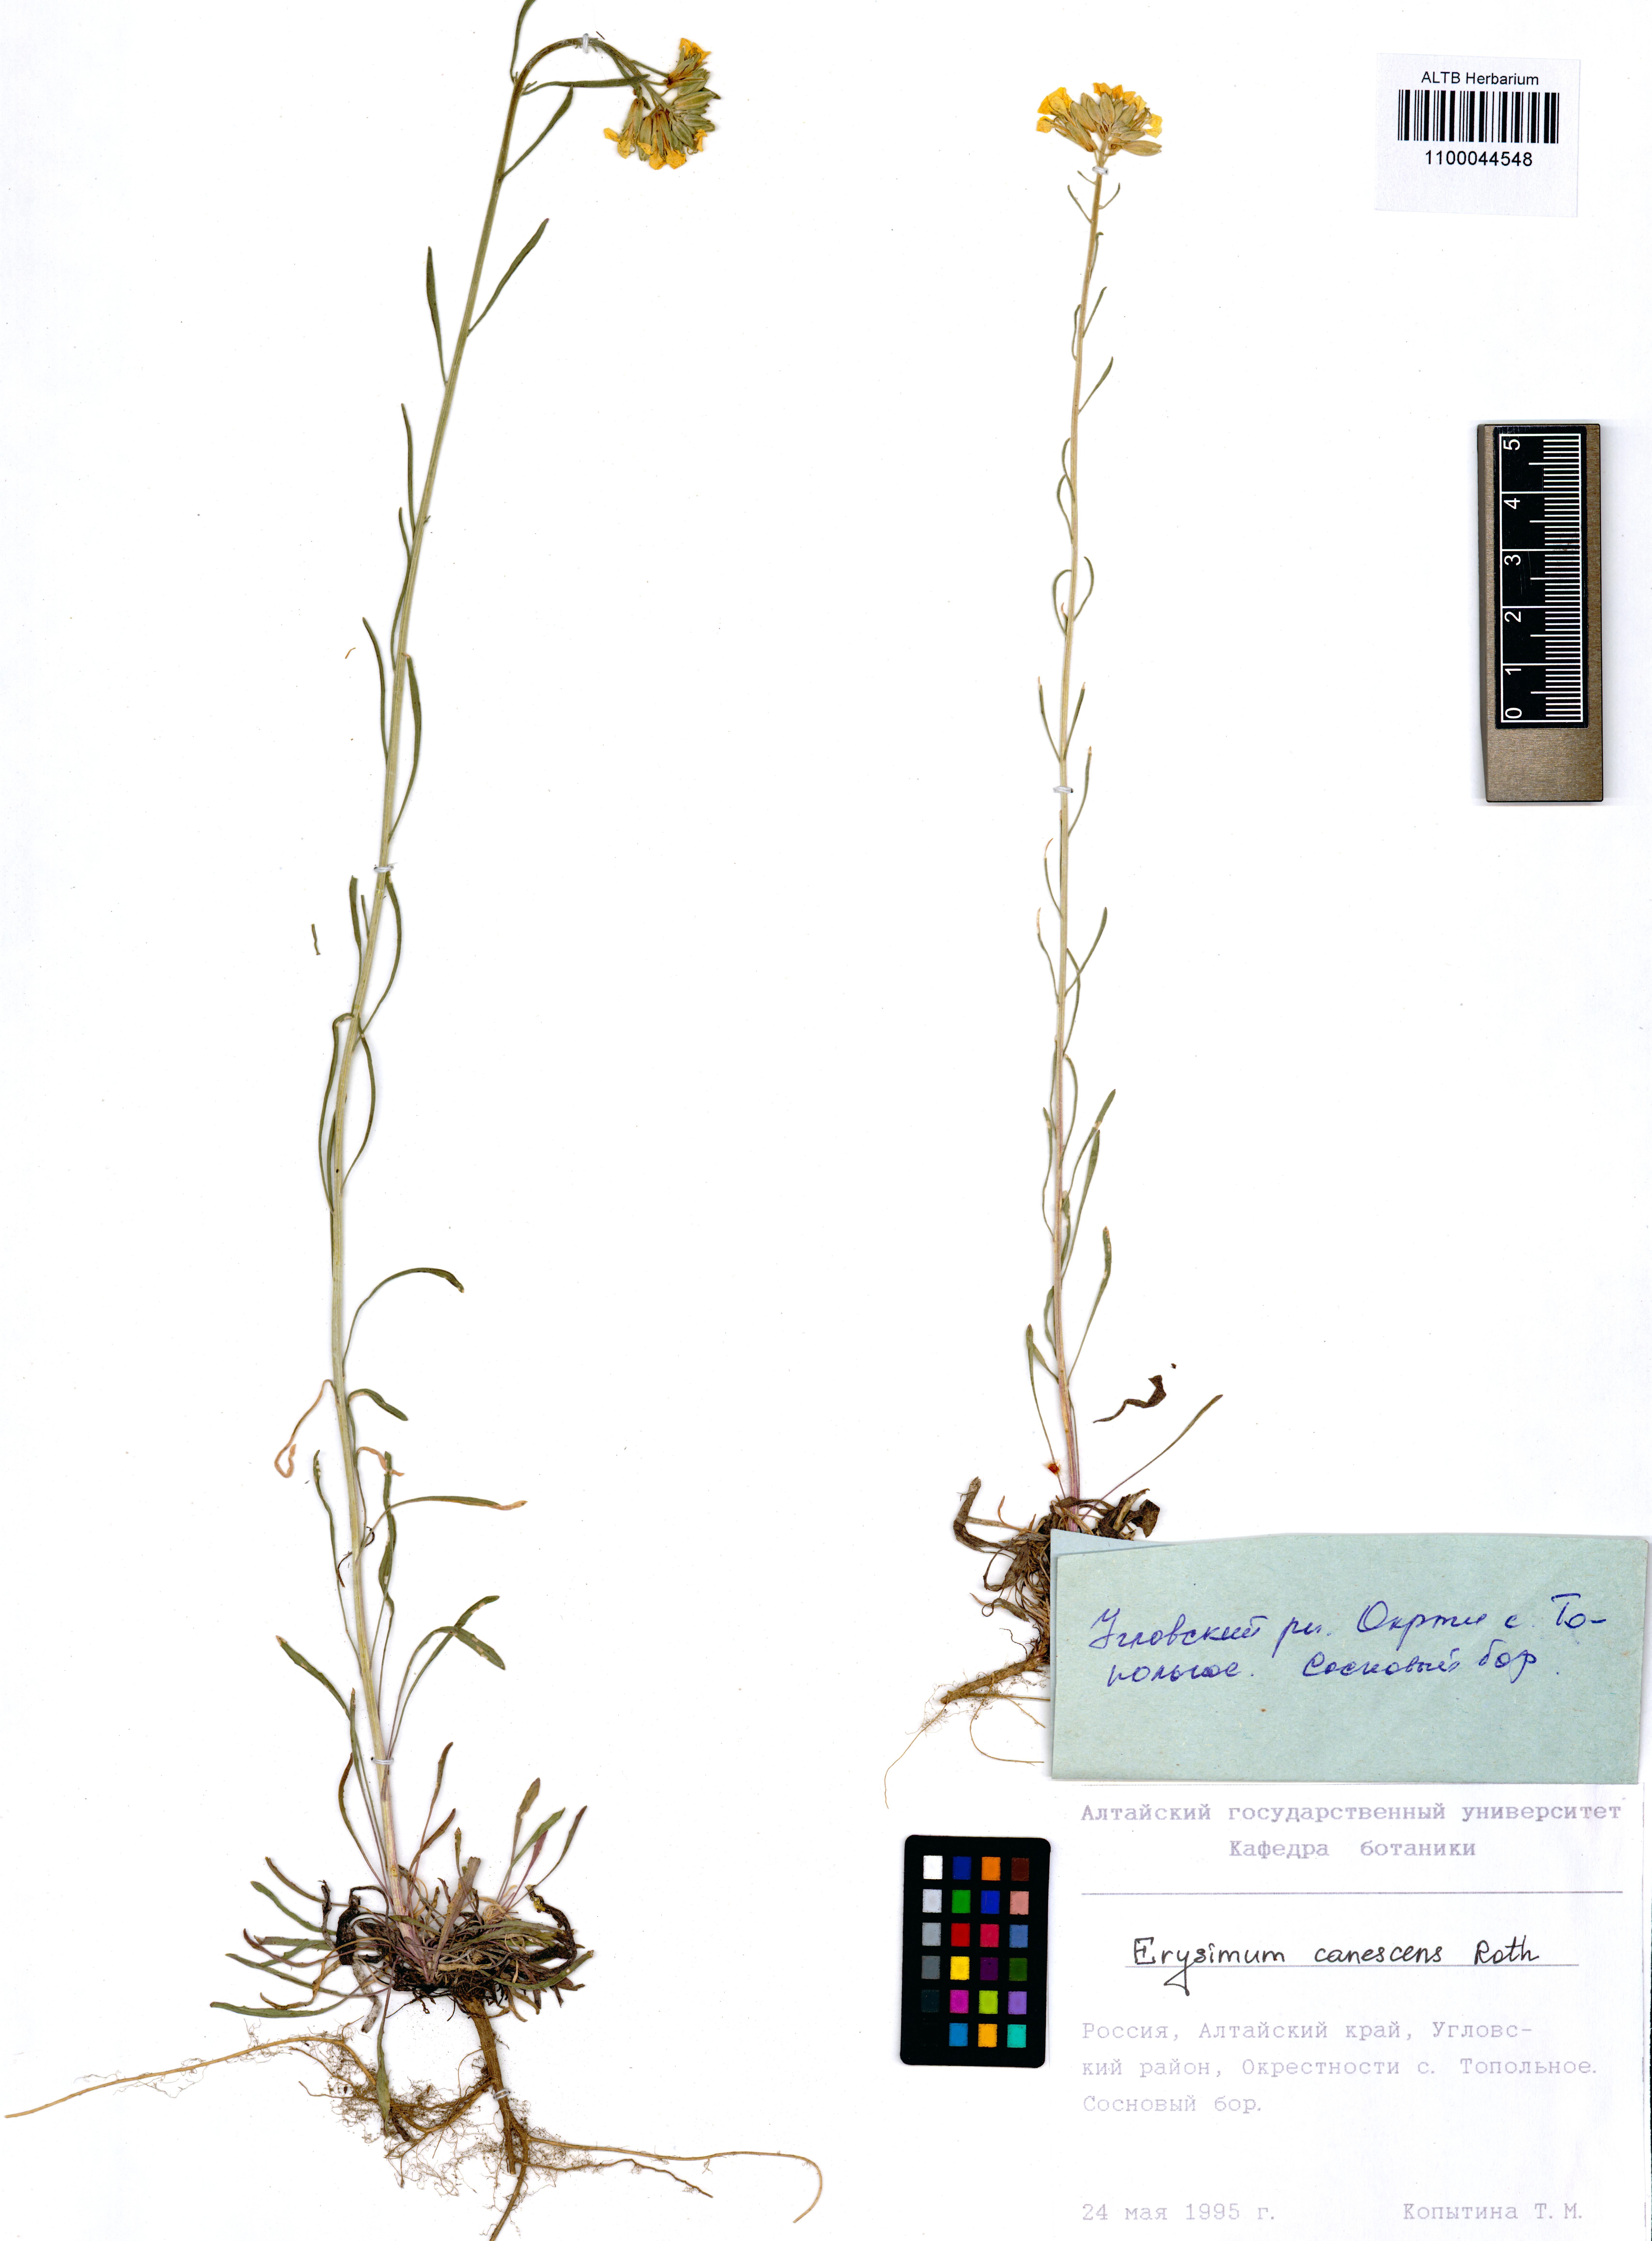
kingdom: Plantae
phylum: Tracheophyta
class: Magnoliopsida
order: Brassicales
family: Brassicaceae
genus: Erysimum
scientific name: Erysimum canescens
